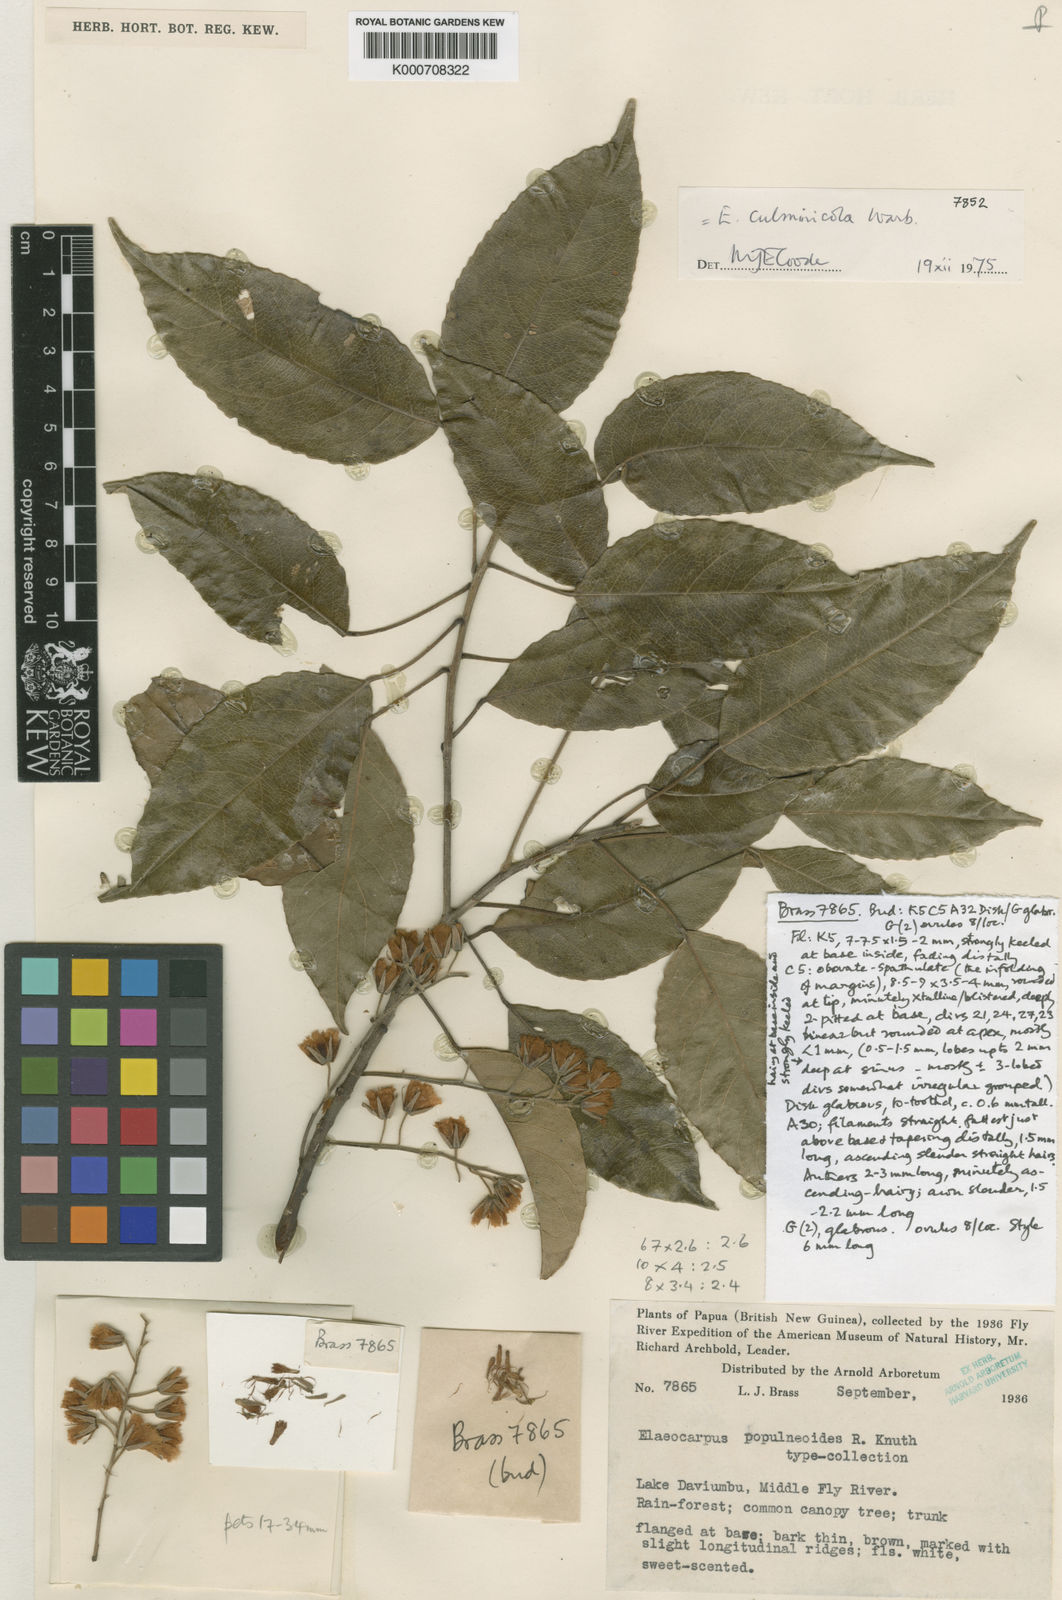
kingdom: Plantae
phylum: Tracheophyta
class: Magnoliopsida
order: Oxalidales
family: Elaeocarpaceae
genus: Elaeocarpus
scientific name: Elaeocarpus culminicola
